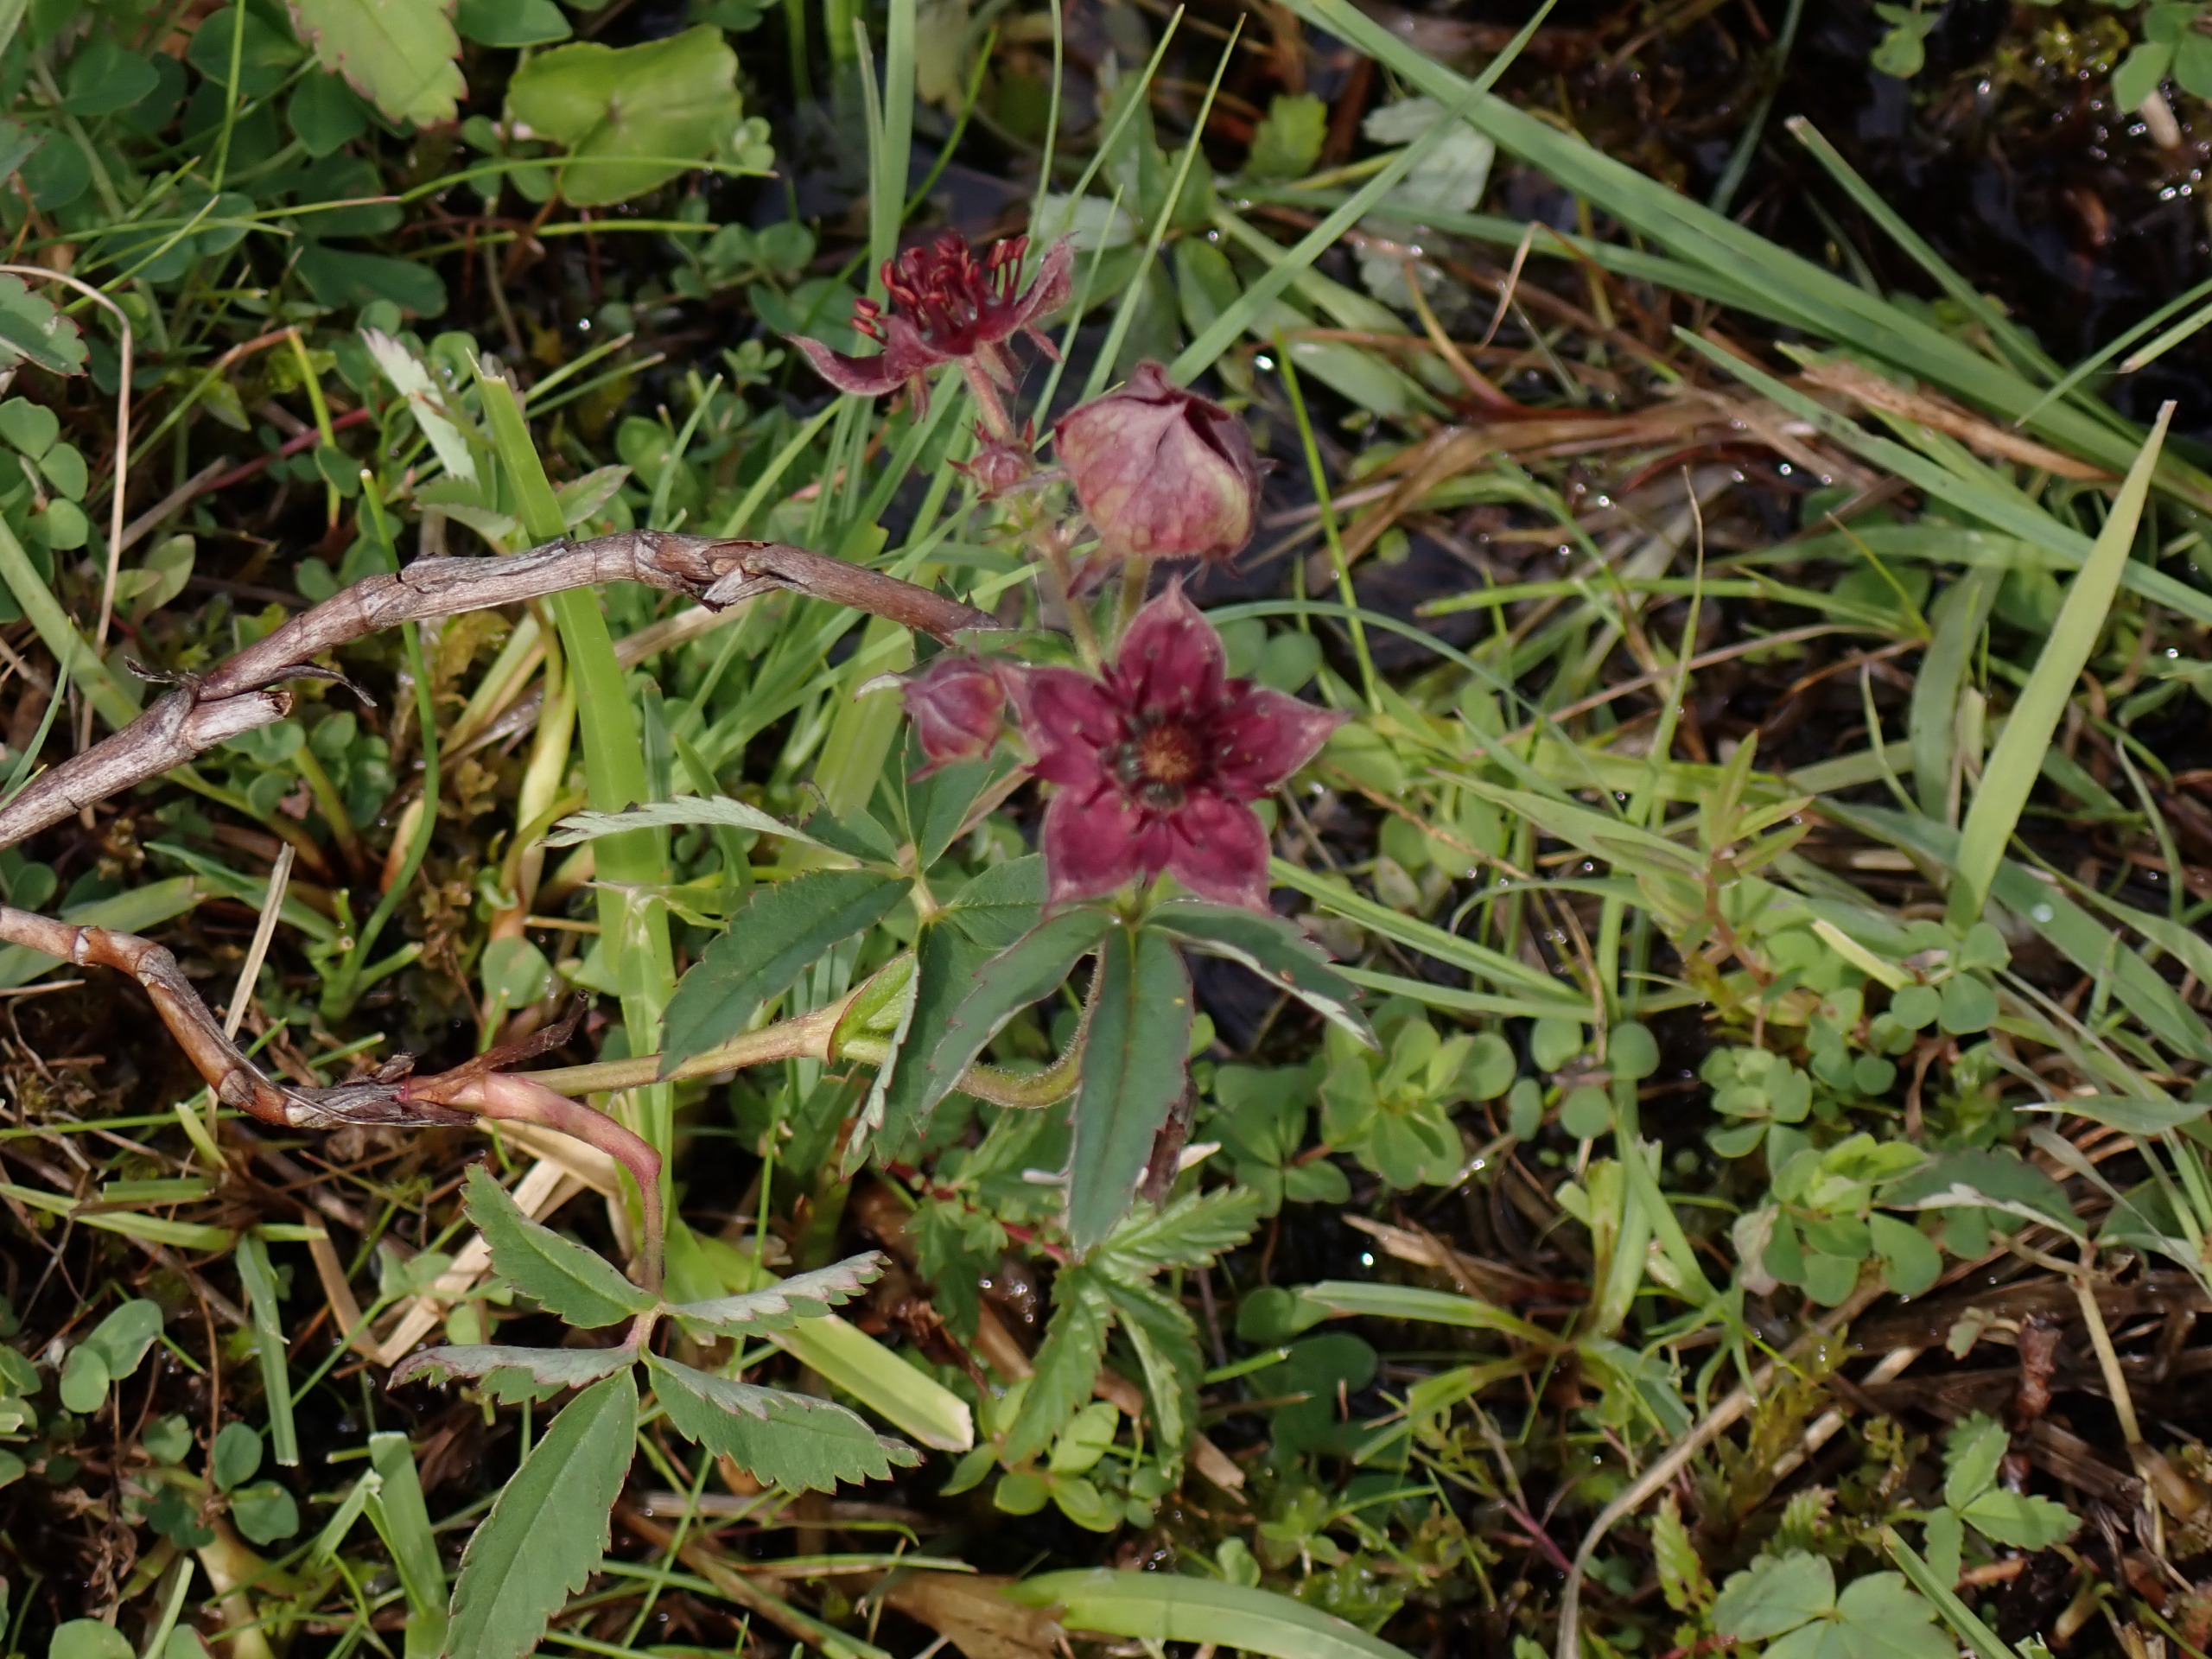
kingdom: Plantae
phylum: Tracheophyta
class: Magnoliopsida
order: Rosales
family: Rosaceae
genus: Comarum
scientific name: Comarum palustre
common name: Kragefod
